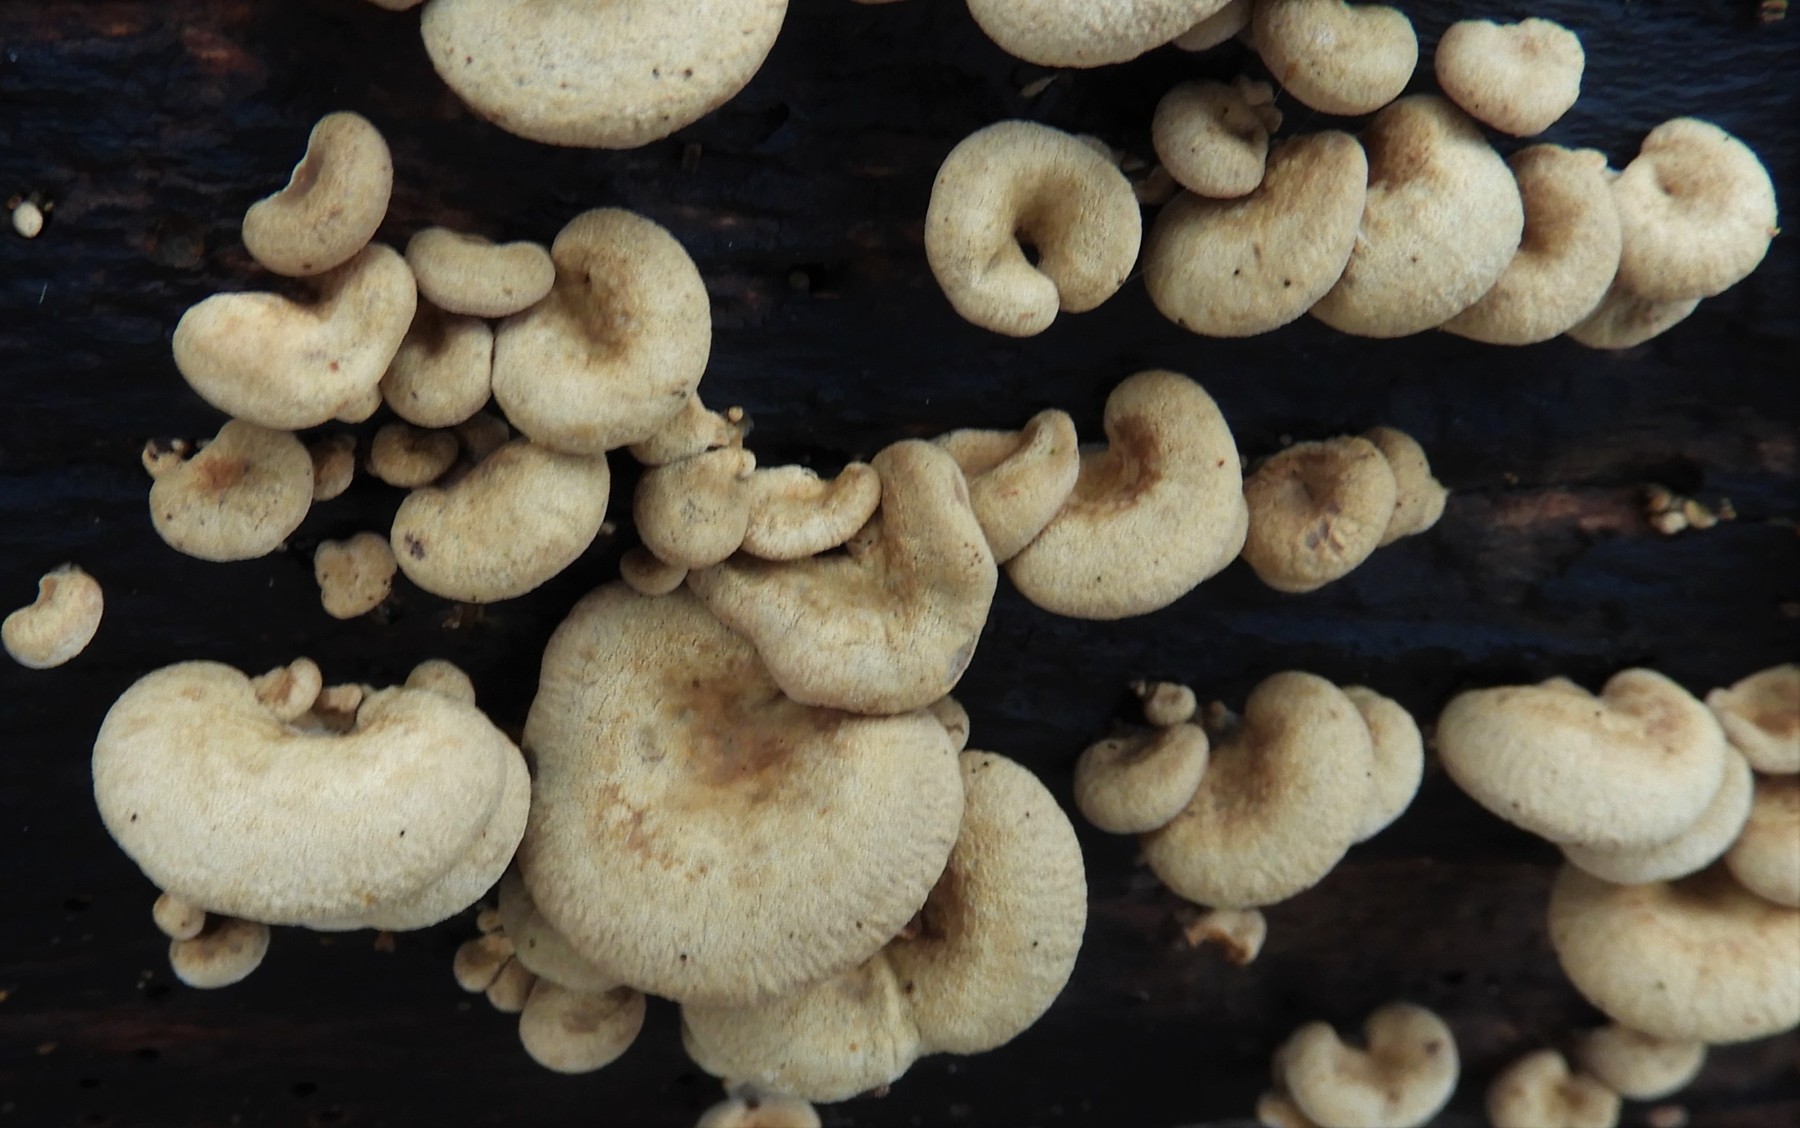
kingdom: Fungi
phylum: Basidiomycota
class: Agaricomycetes
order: Agaricales
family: Mycenaceae
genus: Panellus
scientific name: Panellus stipticus
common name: kliddet epaulethat
